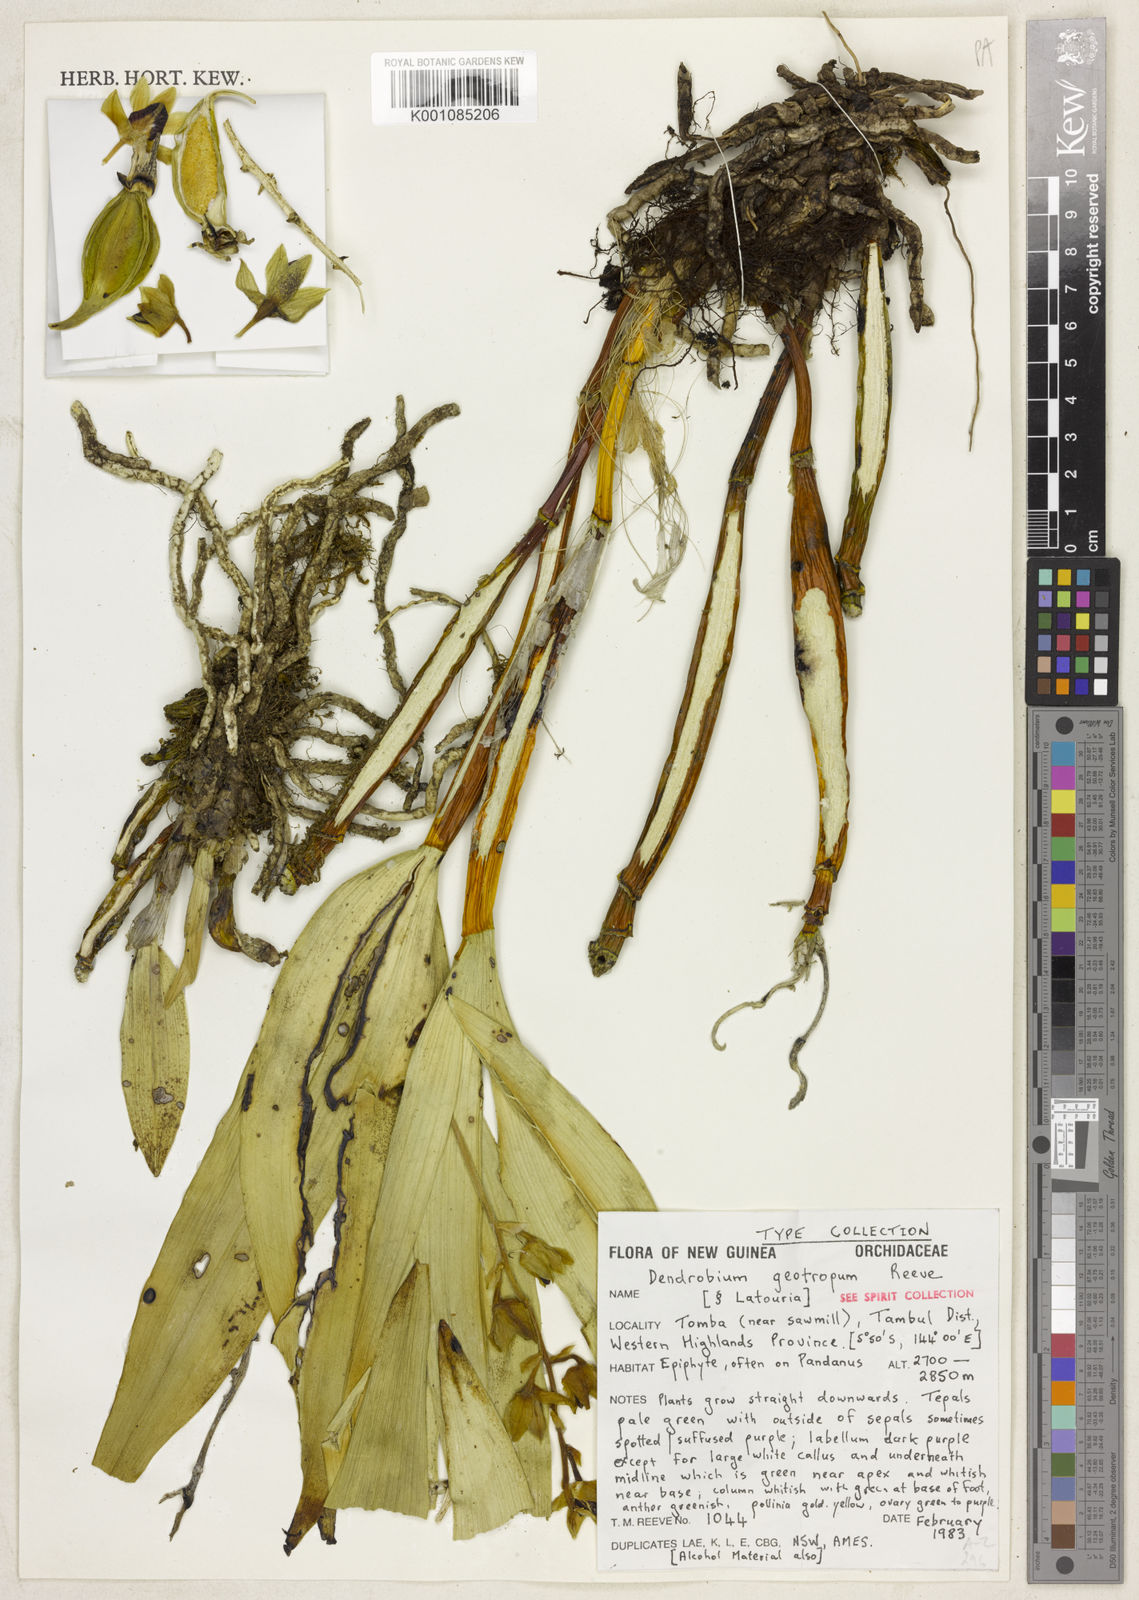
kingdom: Plantae
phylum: Tracheophyta
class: Liliopsida
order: Asparagales
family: Orchidaceae
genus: Dendrobium
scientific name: Dendrobium
